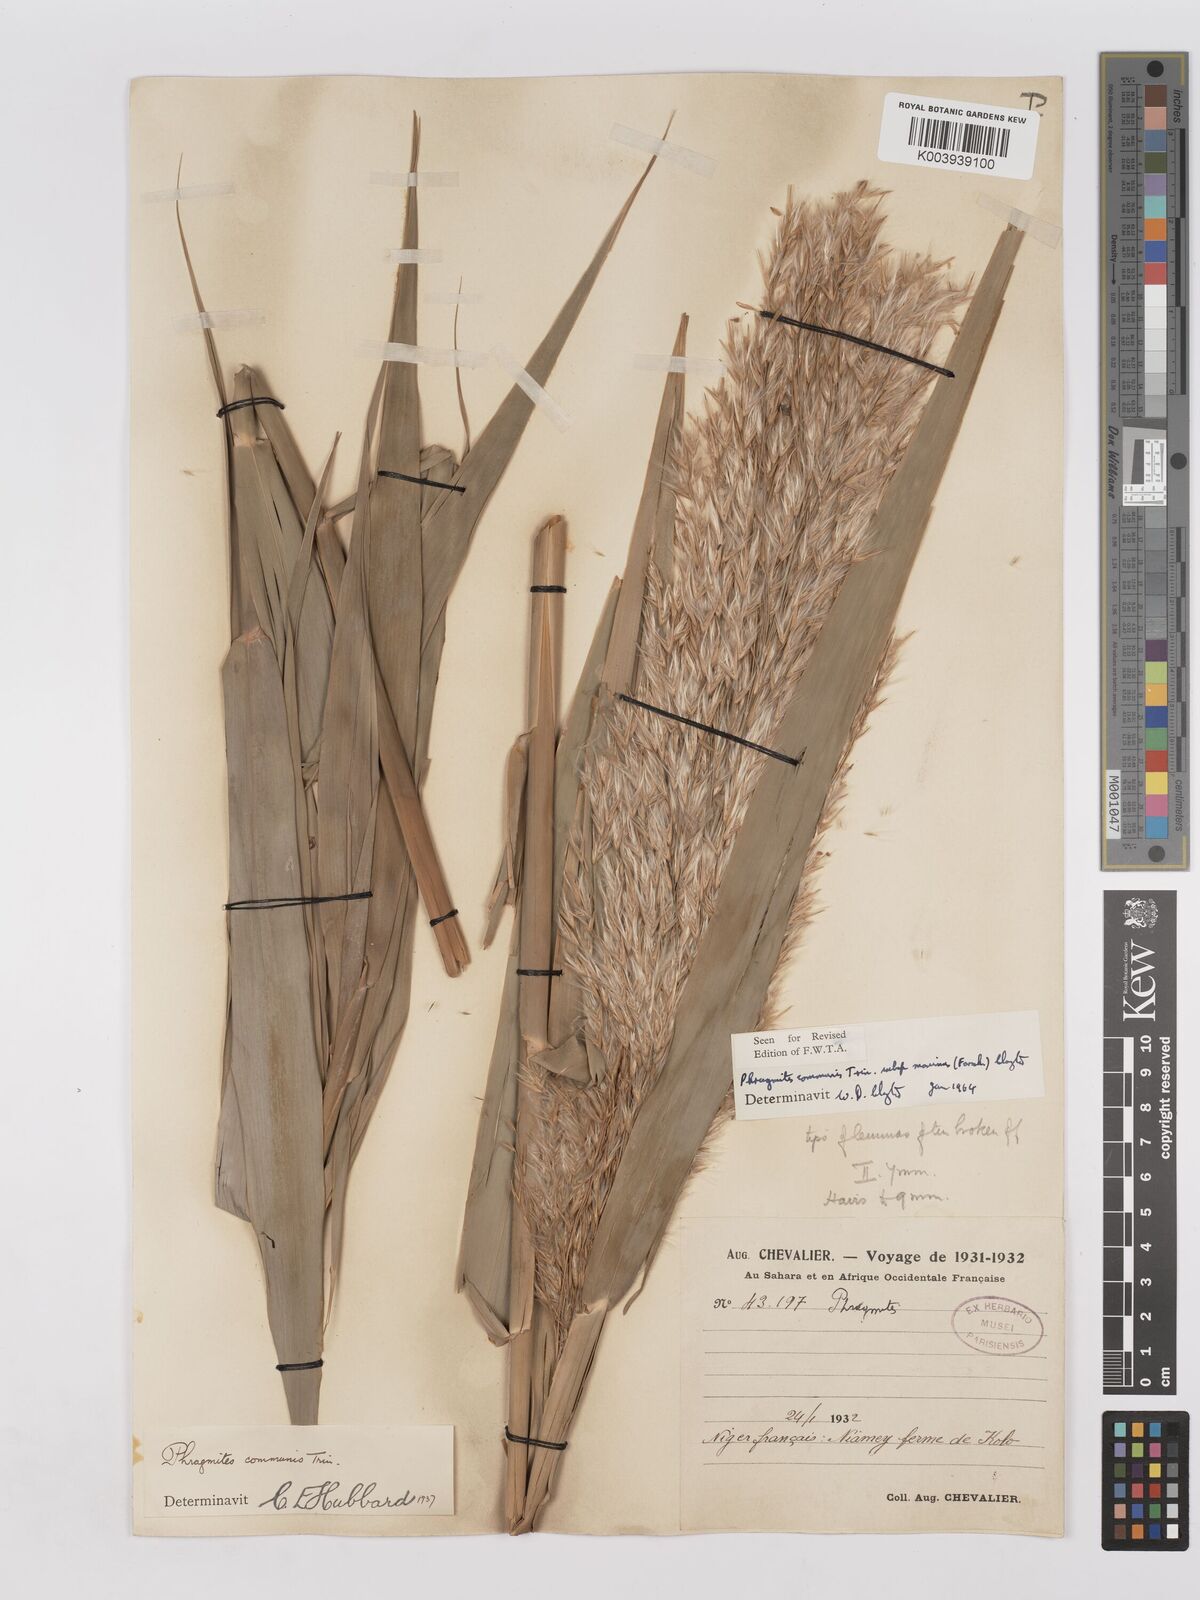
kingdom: Plantae
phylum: Tracheophyta
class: Liliopsida
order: Poales
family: Poaceae
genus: Phragmites
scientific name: Phragmites australis
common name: Common reed
